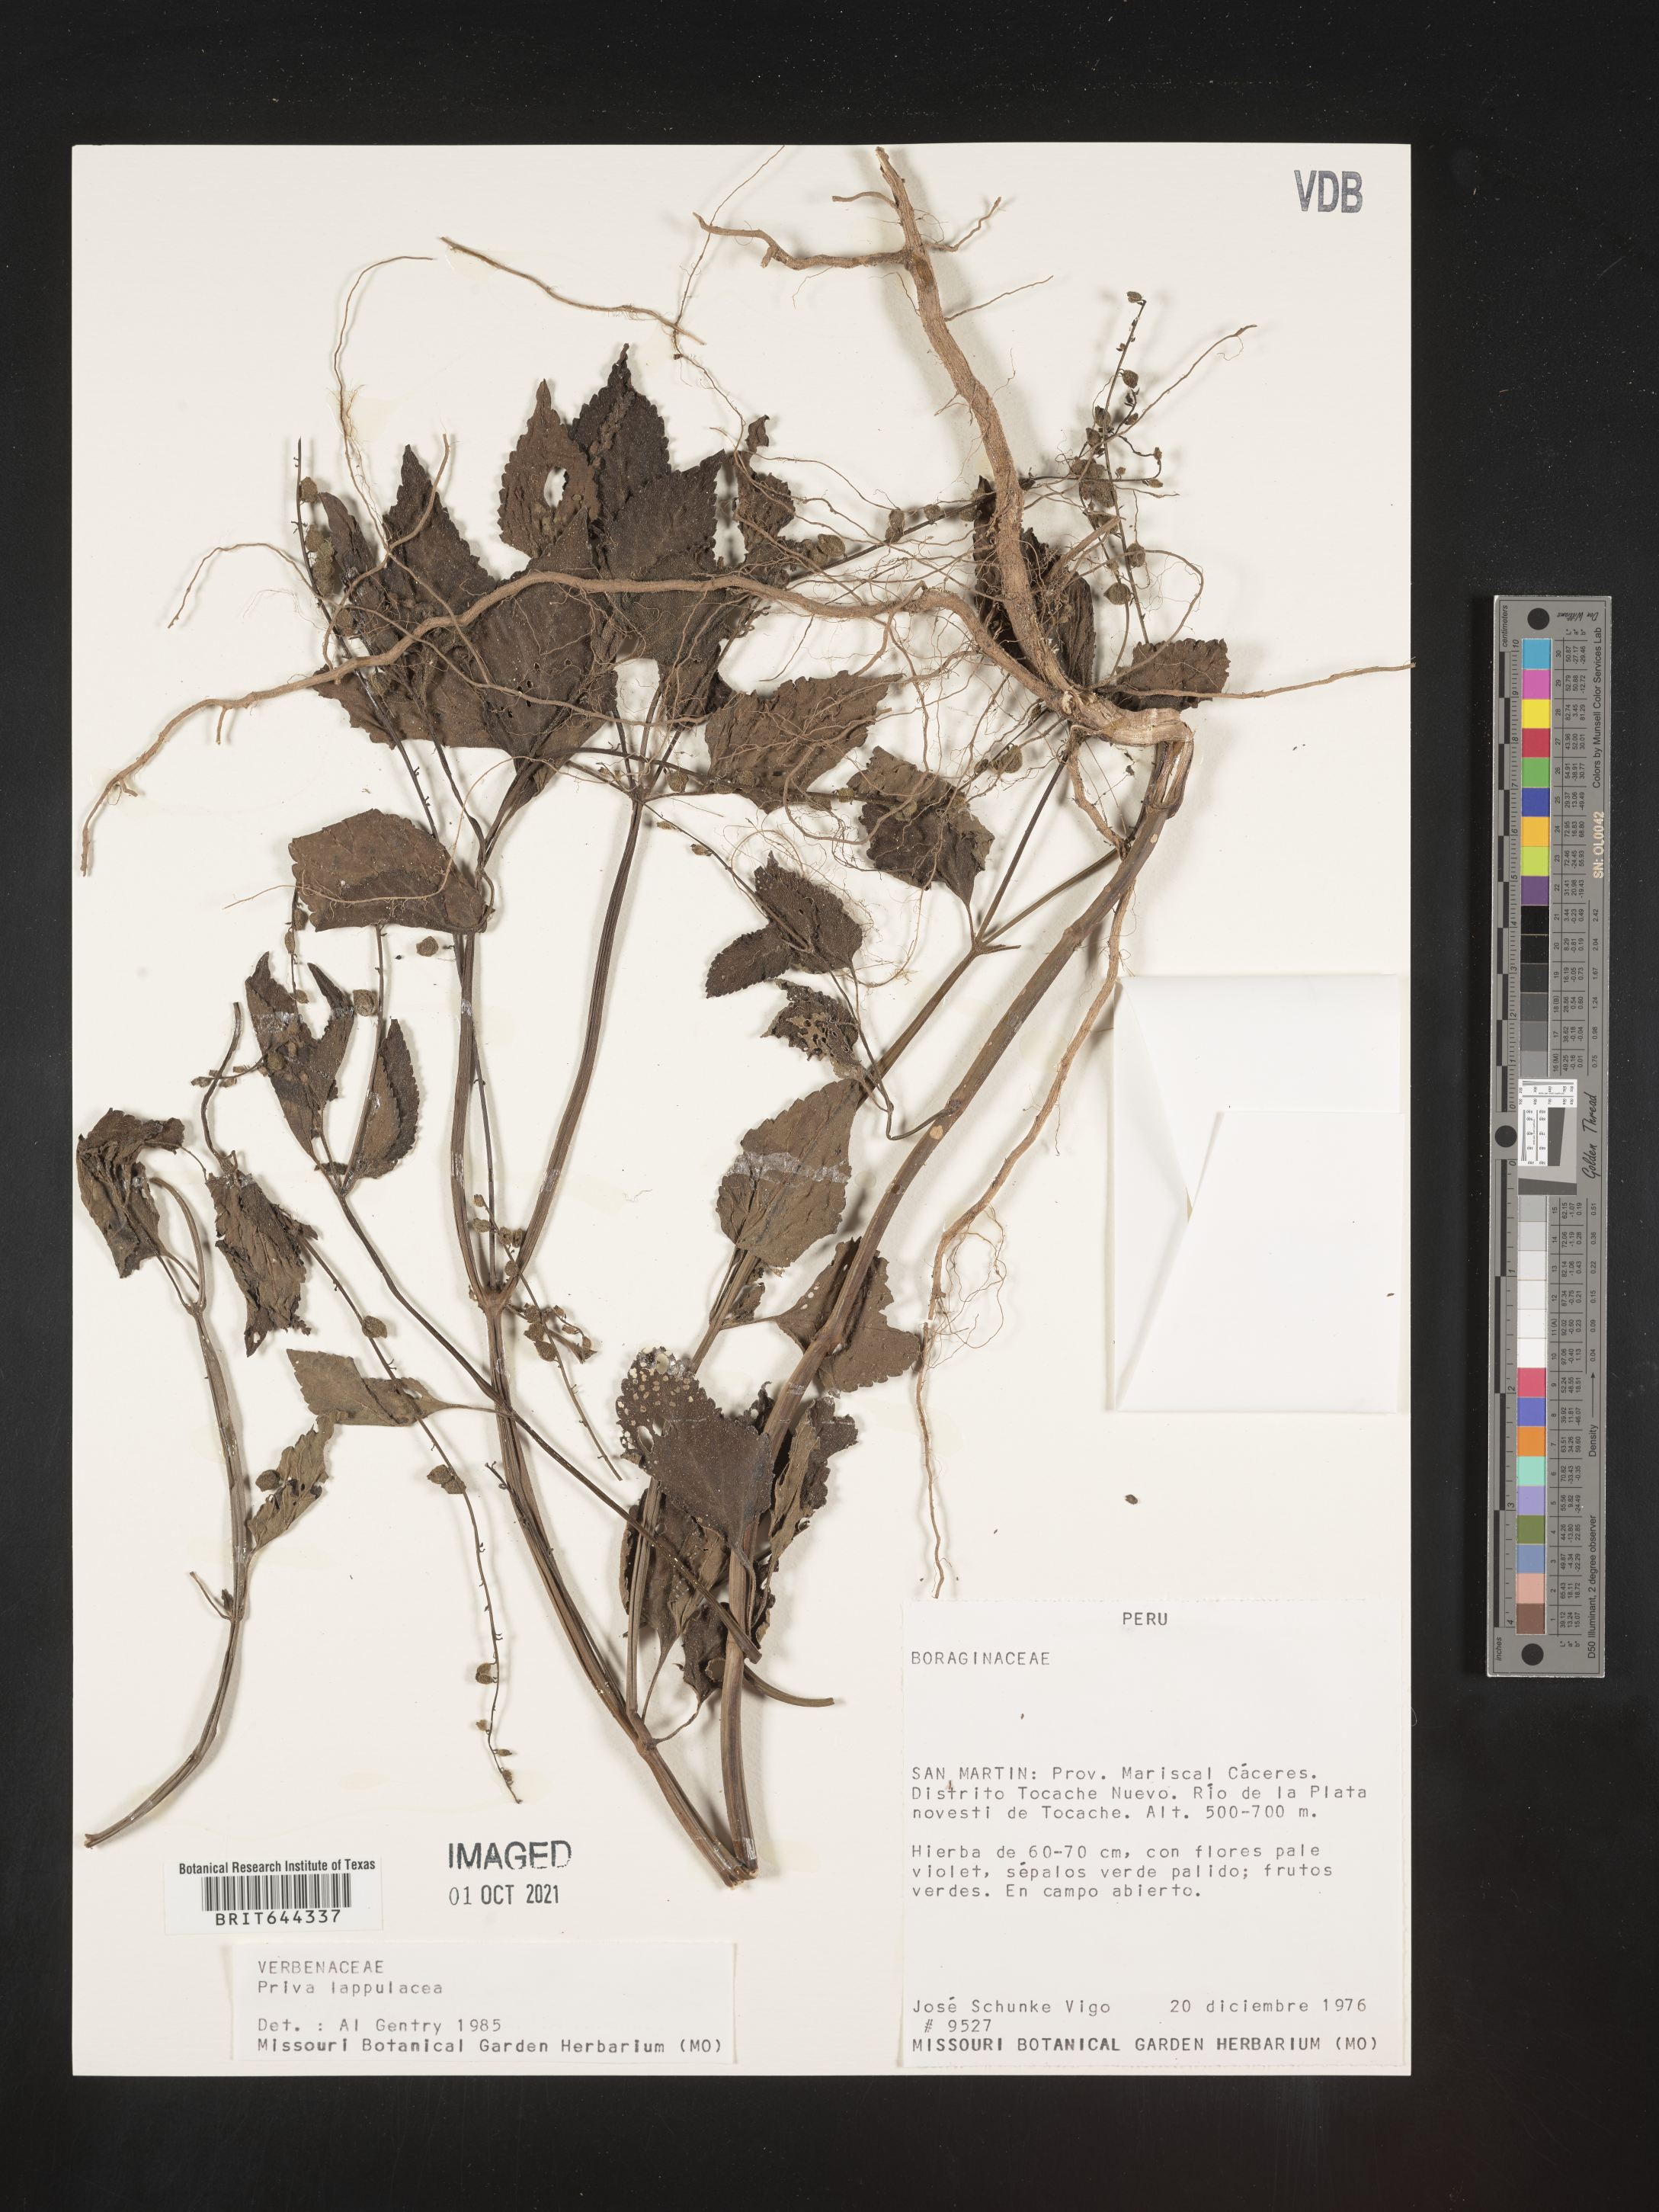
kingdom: Plantae
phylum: Tracheophyta
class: Magnoliopsida
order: Lamiales
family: Verbenaceae
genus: Priva
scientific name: Priva
